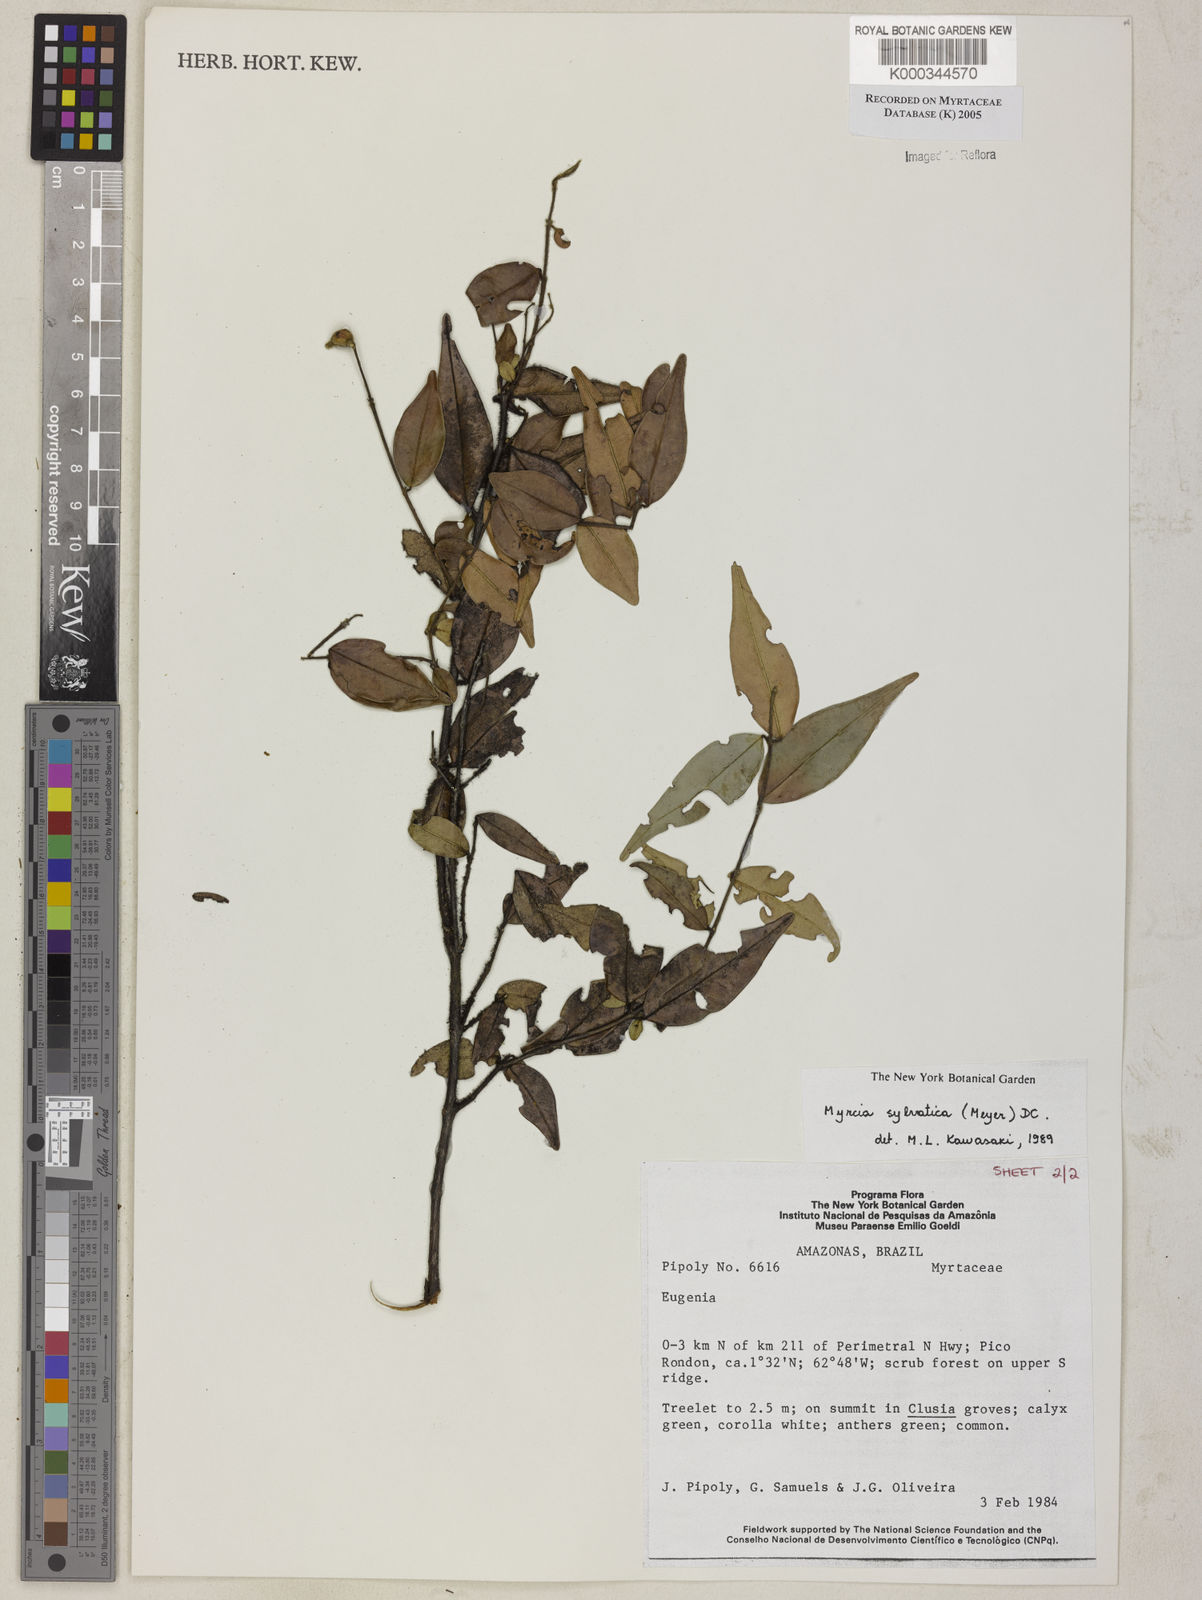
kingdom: Plantae
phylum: Tracheophyta
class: Magnoliopsida
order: Myrtales
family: Myrtaceae
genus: Myrcia
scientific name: Myrcia sylvatica
